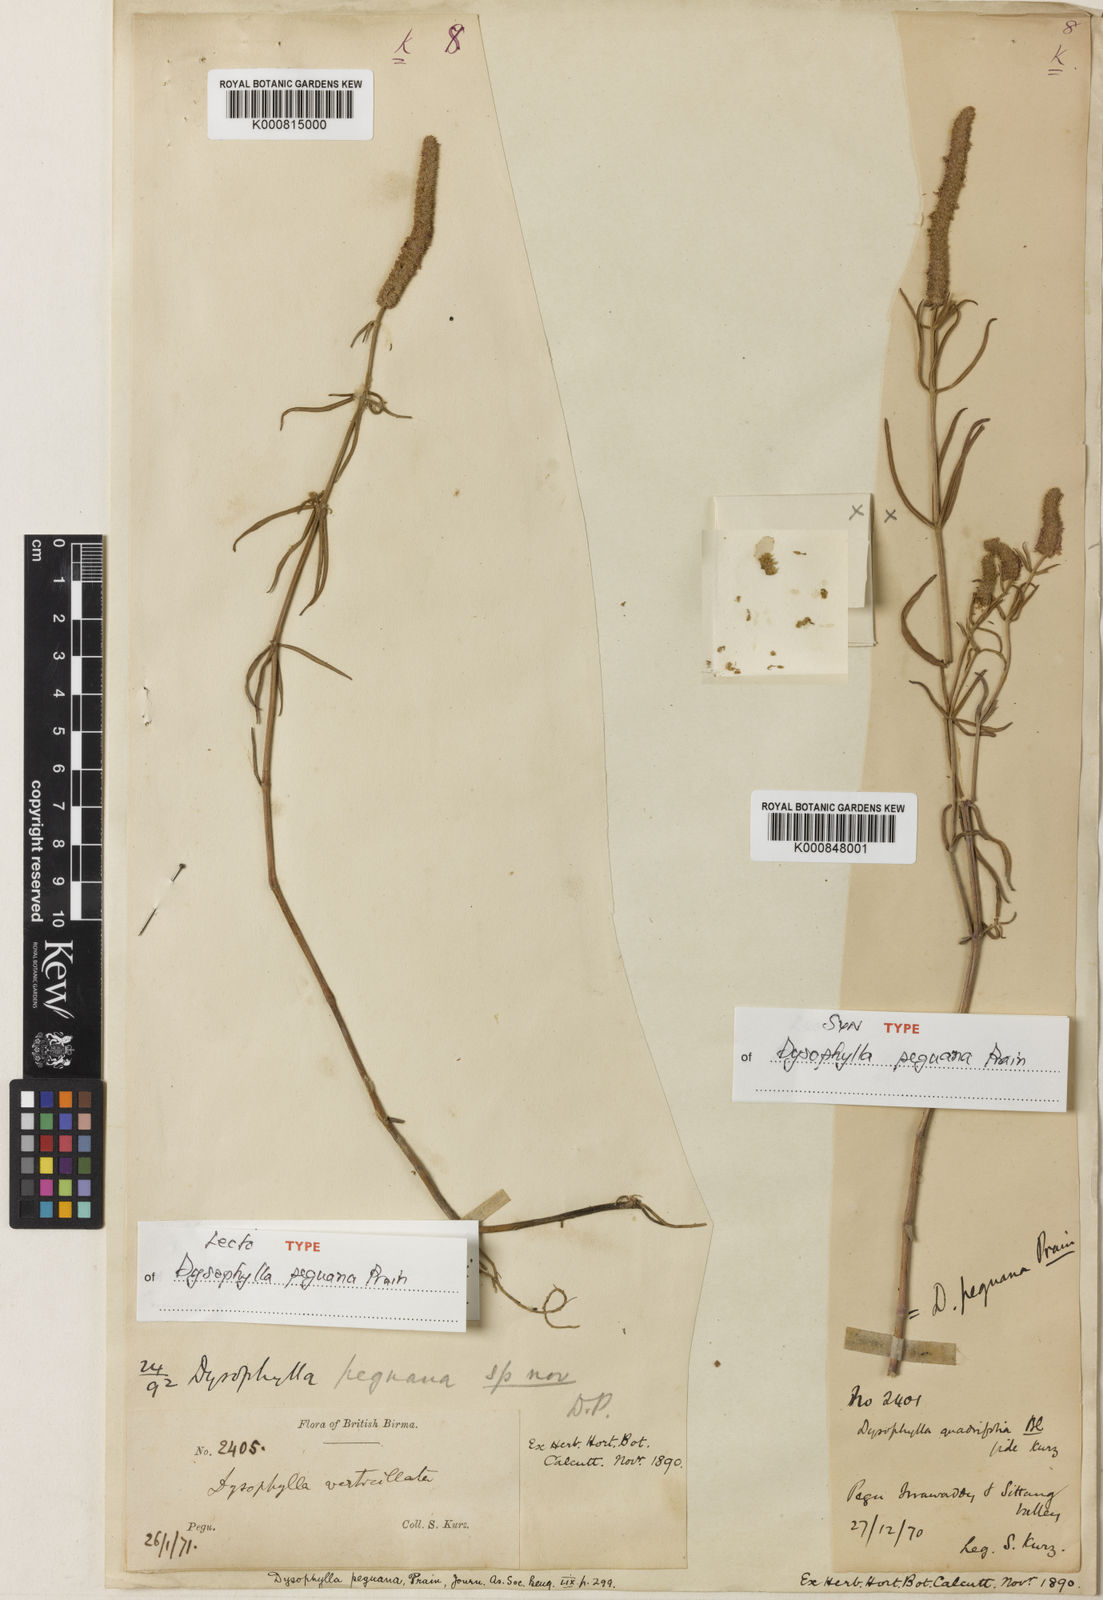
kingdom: Plantae
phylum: Tracheophyta
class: Magnoliopsida
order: Lamiales
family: Lamiaceae
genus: Pogostemon
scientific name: Pogostemon peguanus
